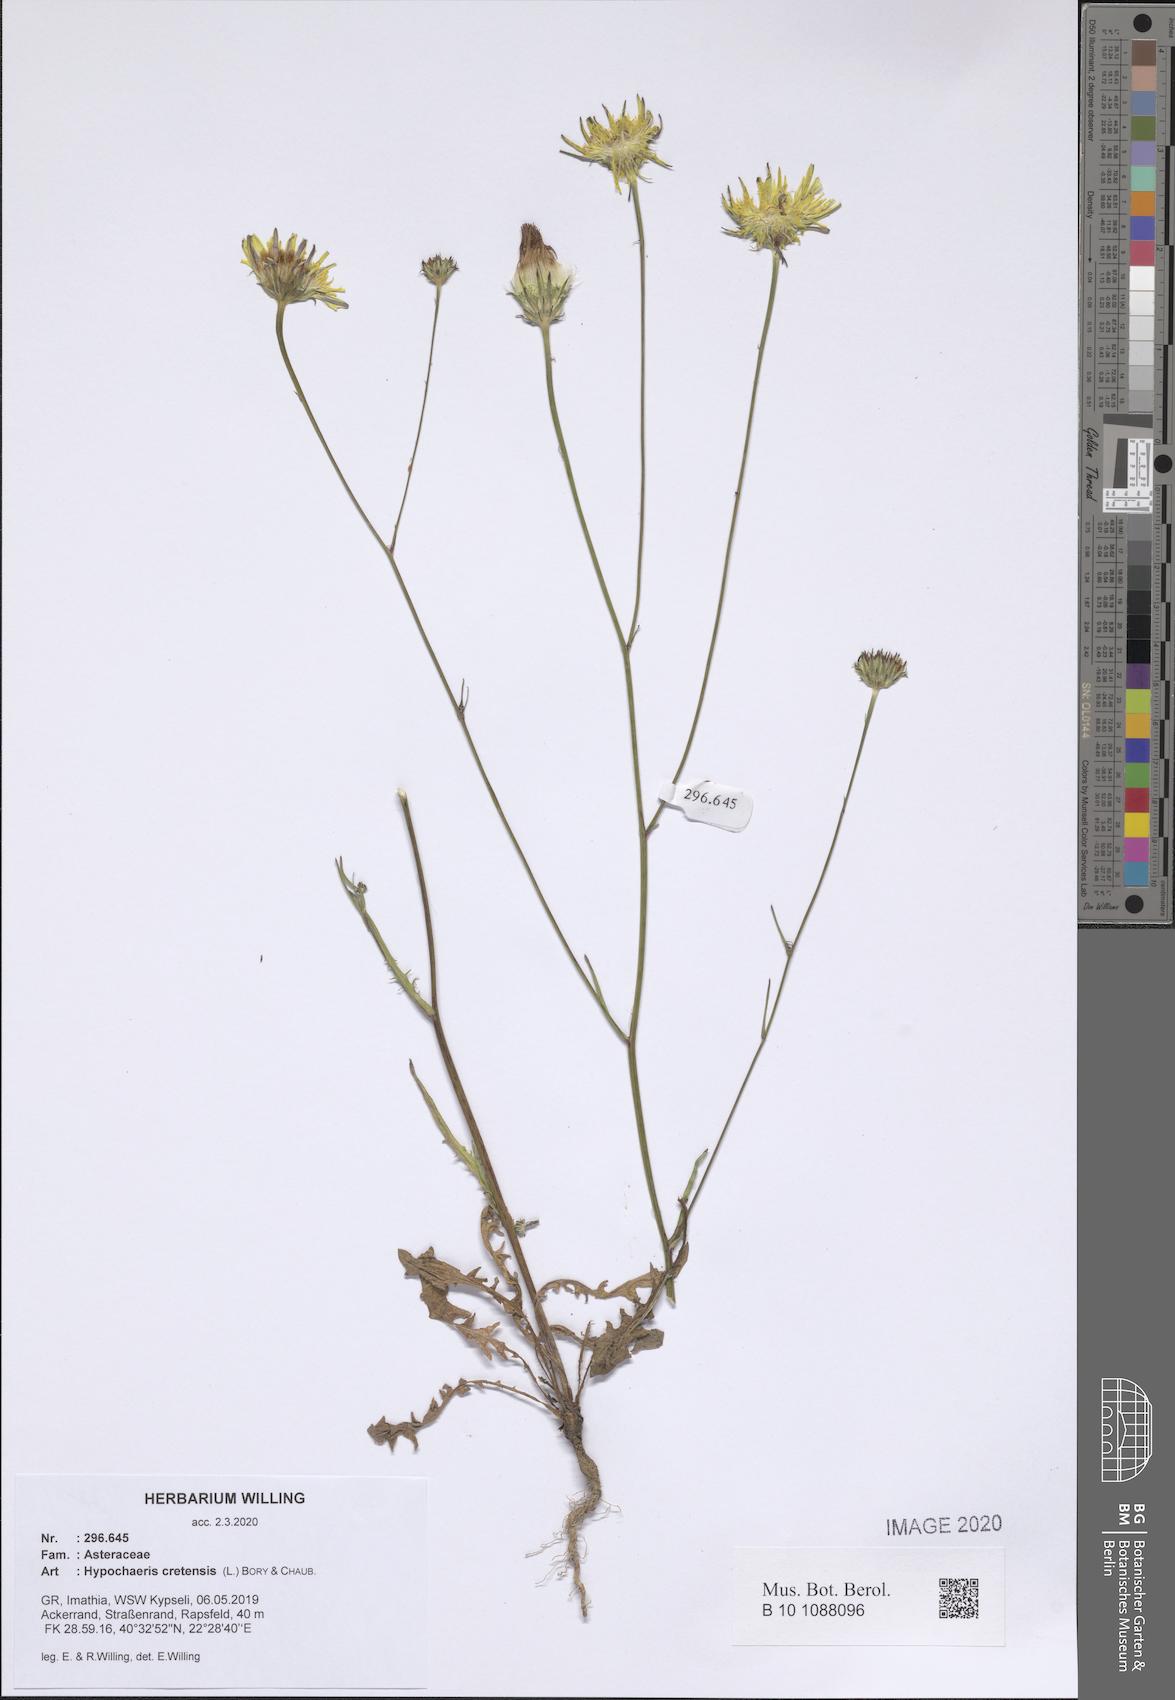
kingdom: Plantae
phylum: Tracheophyta
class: Magnoliopsida
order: Asterales
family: Asteraceae
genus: Hypochaeris
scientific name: Hypochaeris cretensis
